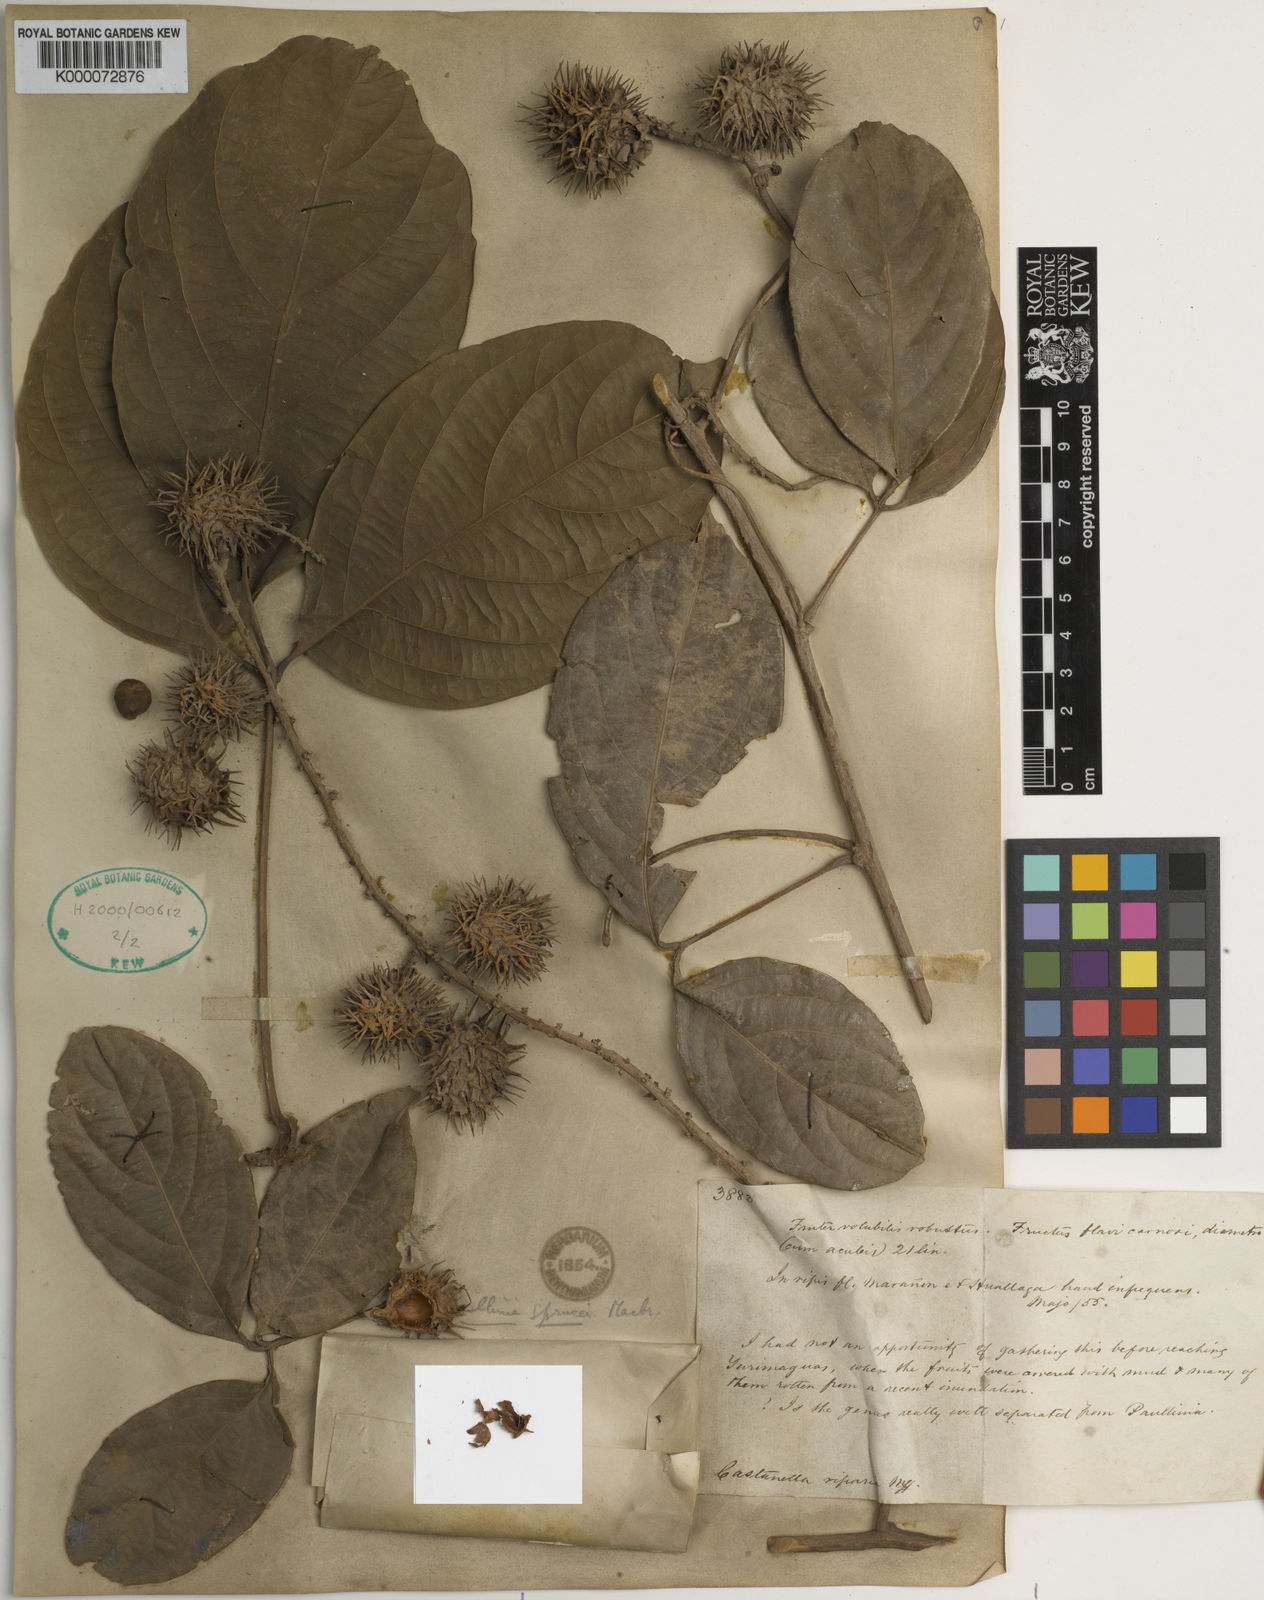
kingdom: Plantae
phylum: Tracheophyta
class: Magnoliopsida
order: Sapindales
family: Sapindaceae
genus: Paullinia
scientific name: Paullinia sprucei
